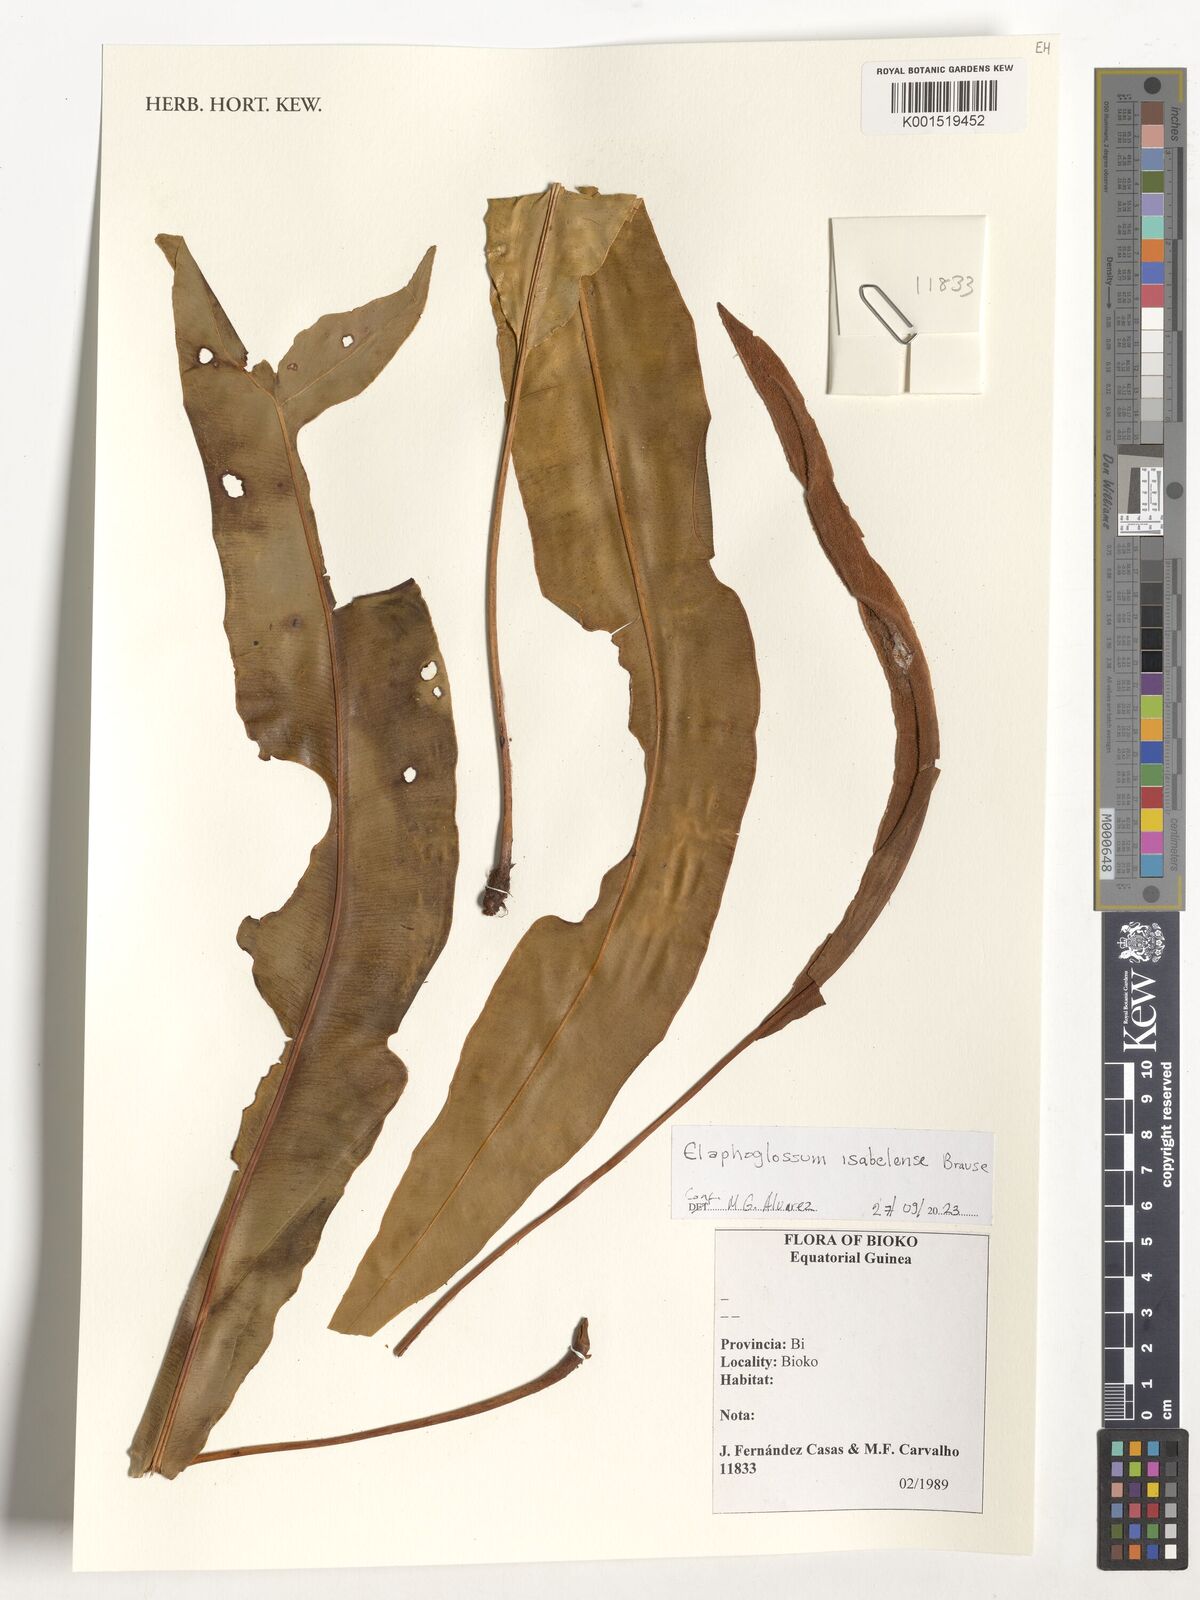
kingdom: Plantae
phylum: Tracheophyta
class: Polypodiopsida
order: Polypodiales
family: Dryopteridaceae
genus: Elaphoglossum
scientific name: Elaphoglossum isabelense
